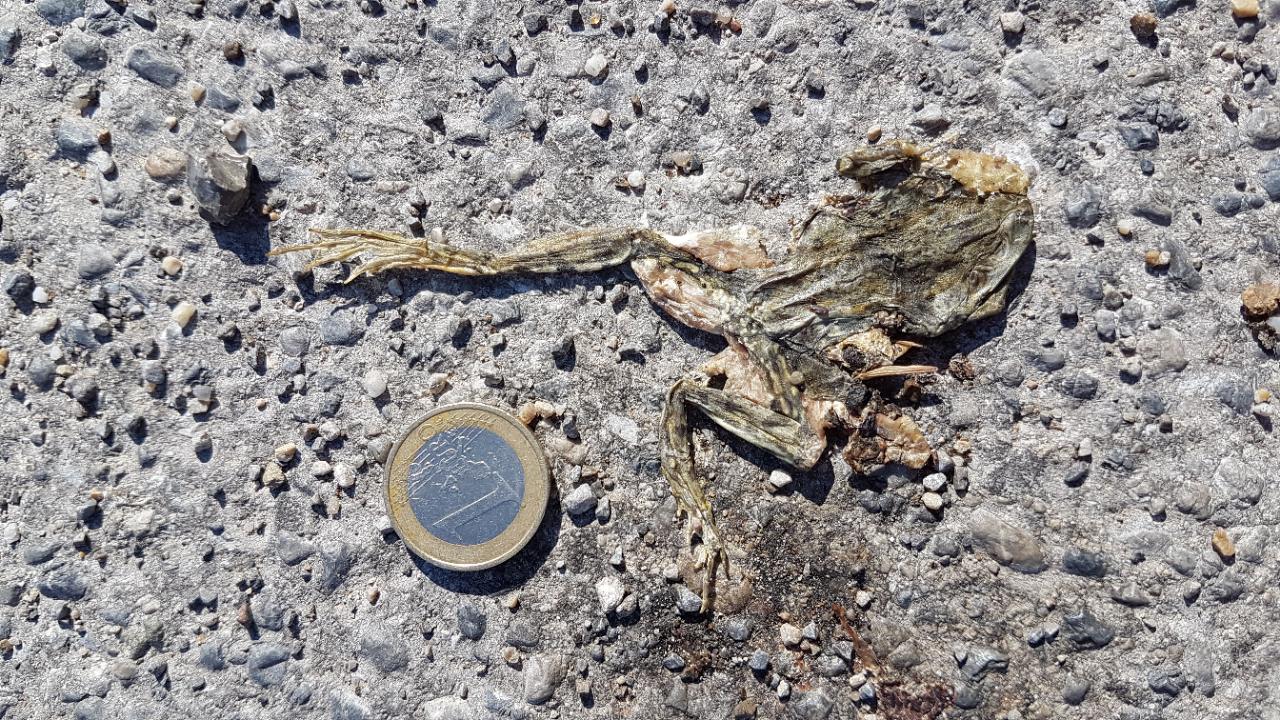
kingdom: Animalia
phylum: Chordata
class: Amphibia
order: Anura
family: Ranidae
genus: Rana
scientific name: Rana temporaria
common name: Common frog
